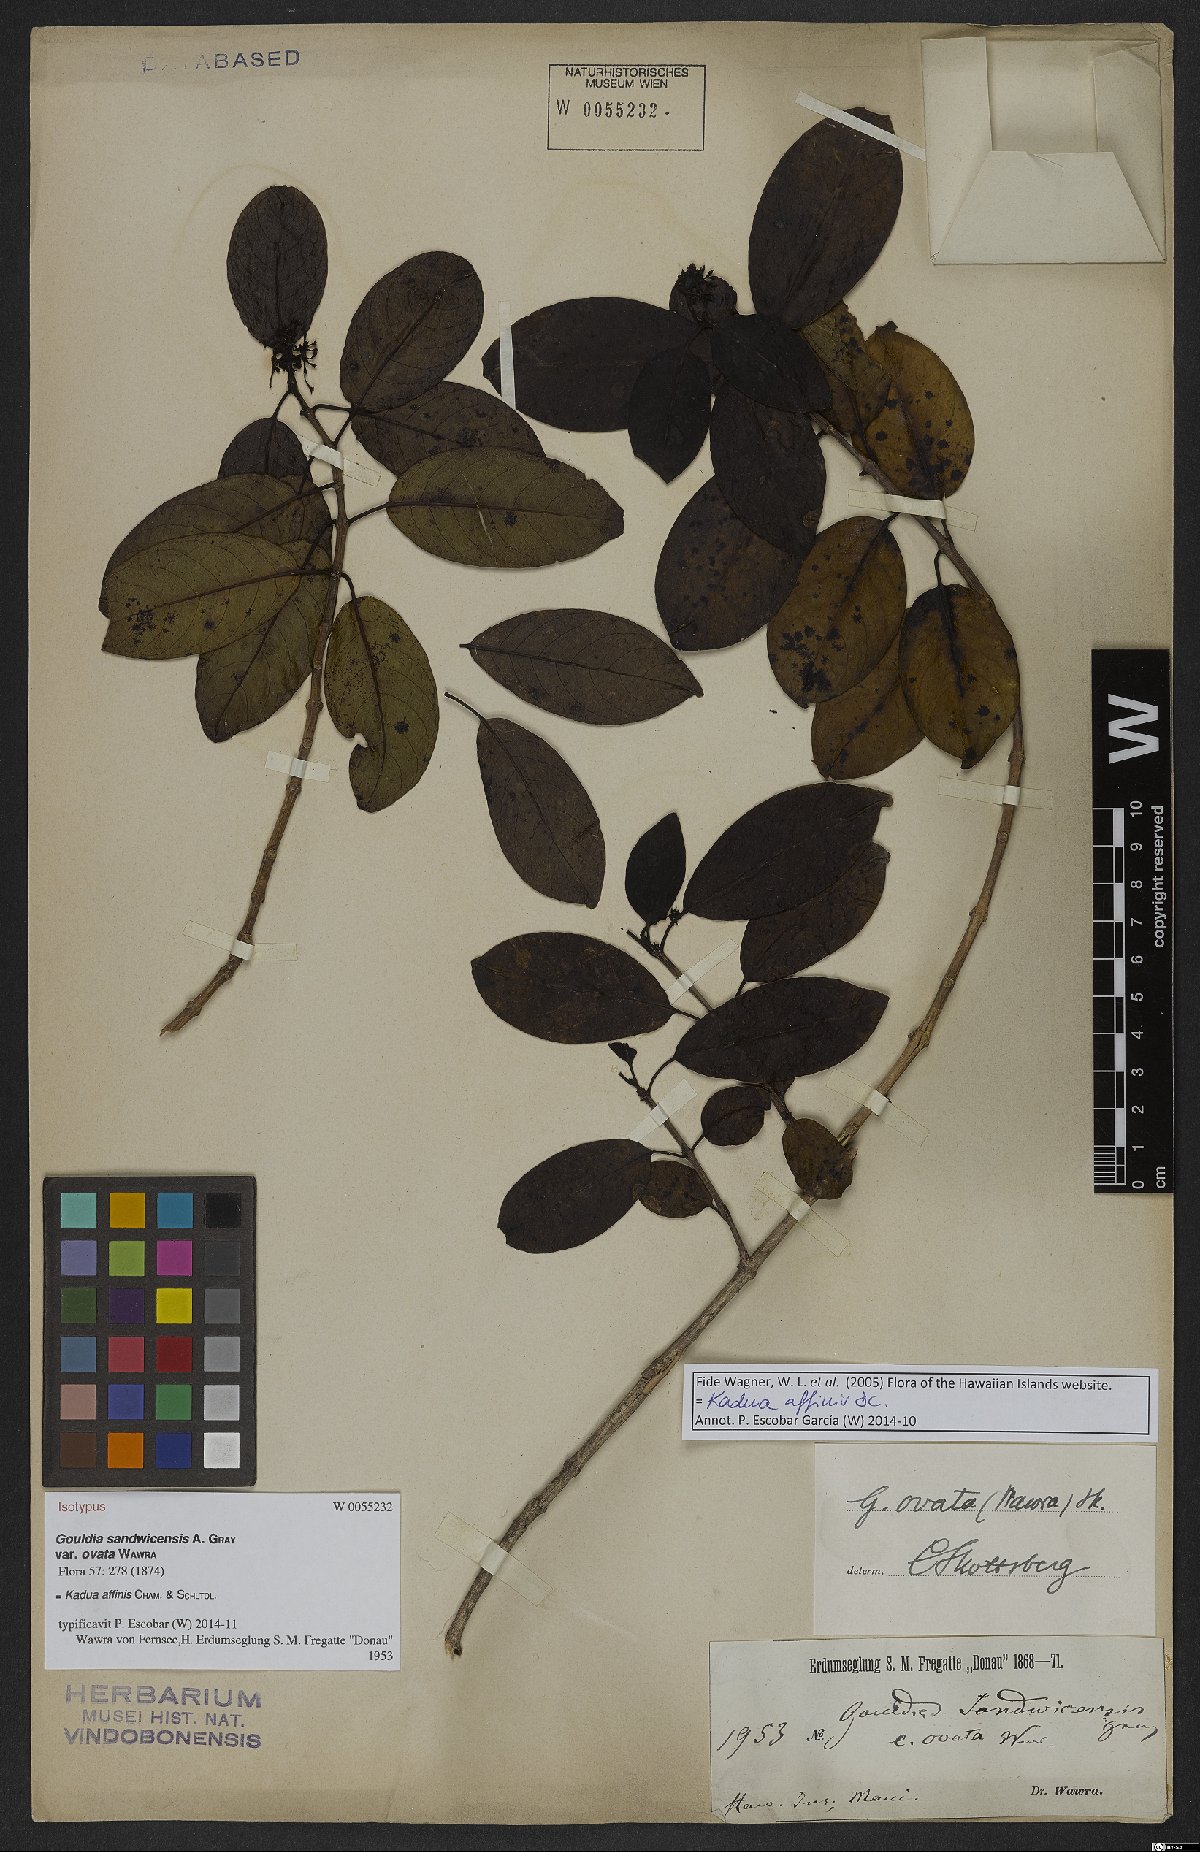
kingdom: Plantae
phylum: Tracheophyta
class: Magnoliopsida
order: Gentianales
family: Rubiaceae
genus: Kadua
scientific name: Kadua affinis
